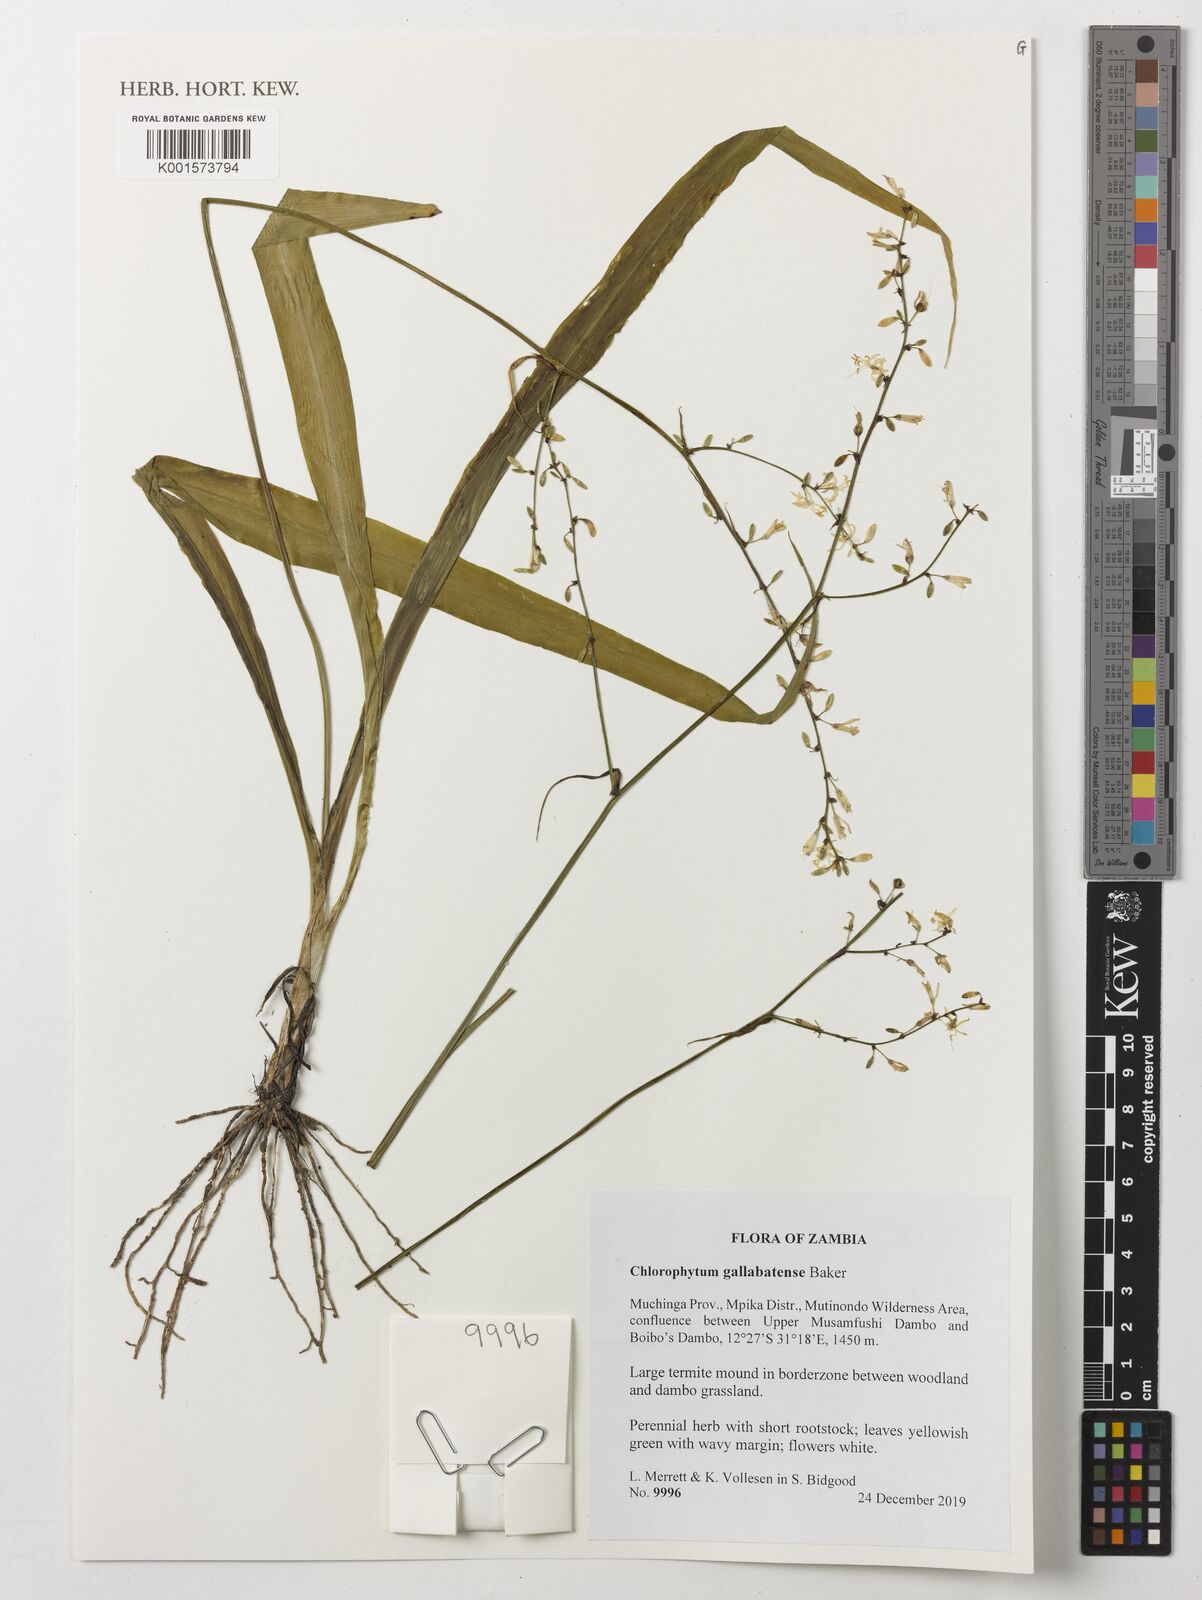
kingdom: Plantae
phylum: Tracheophyta
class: Liliopsida
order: Asparagales
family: Asparagaceae
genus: Chlorophytum
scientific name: Chlorophytum gallabatense
